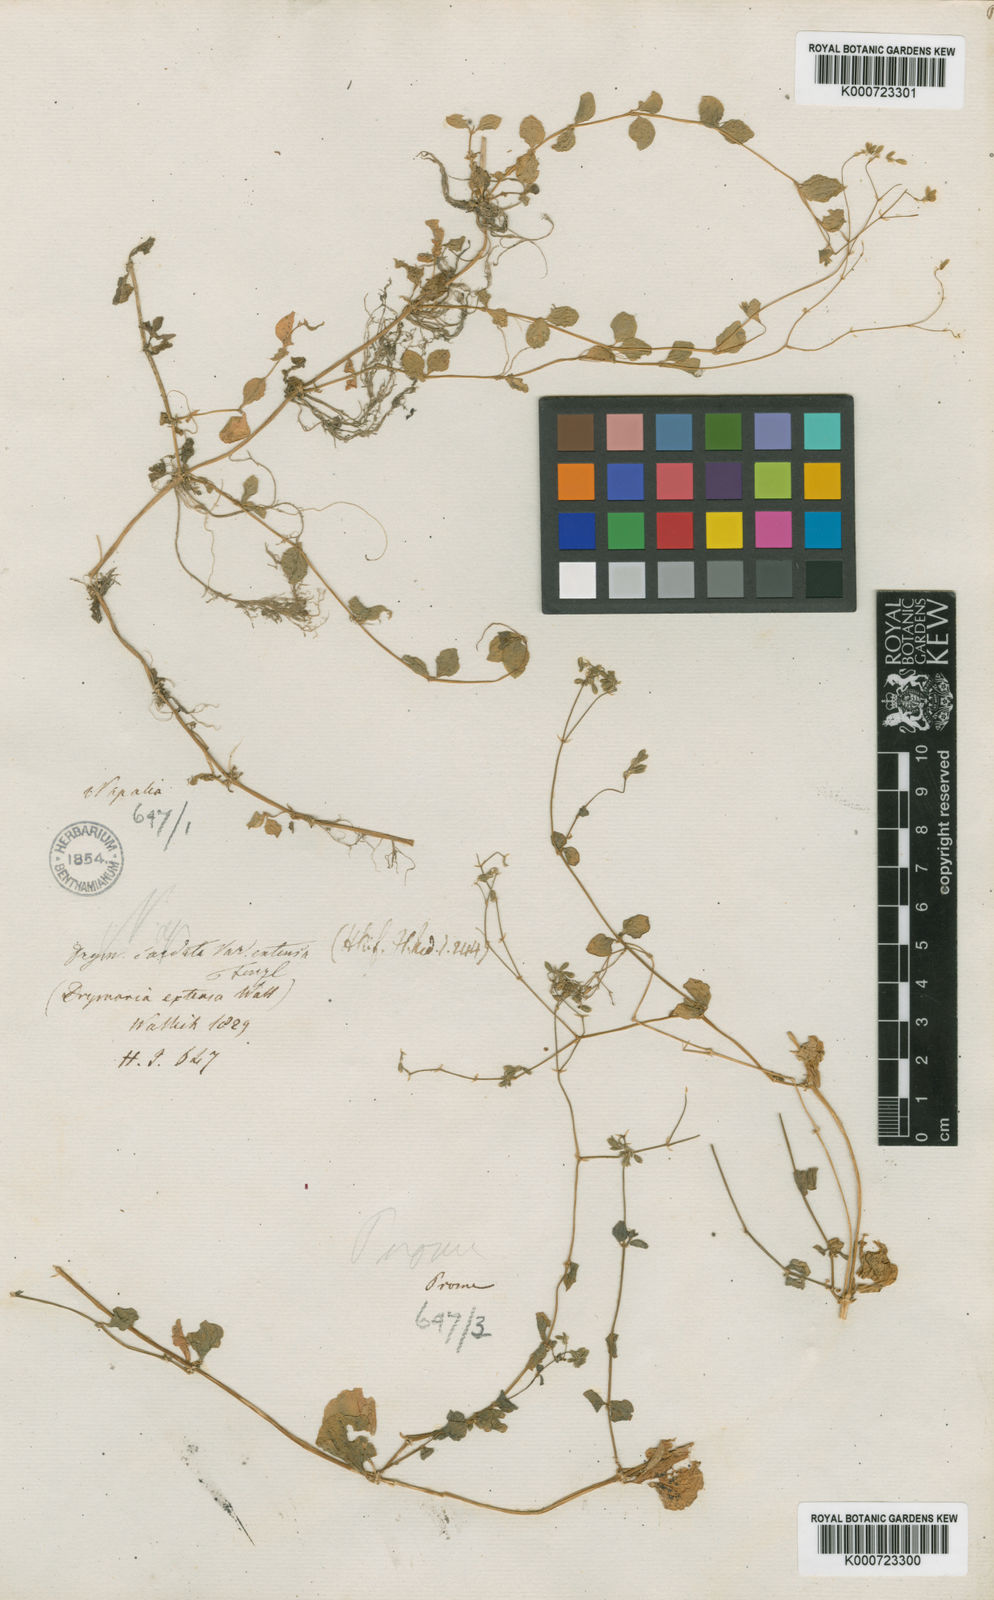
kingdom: Plantae
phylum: Tracheophyta
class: Magnoliopsida
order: Caryophyllales
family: Caryophyllaceae
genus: Drymaria
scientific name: Drymaria cordata
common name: Whitesnow
